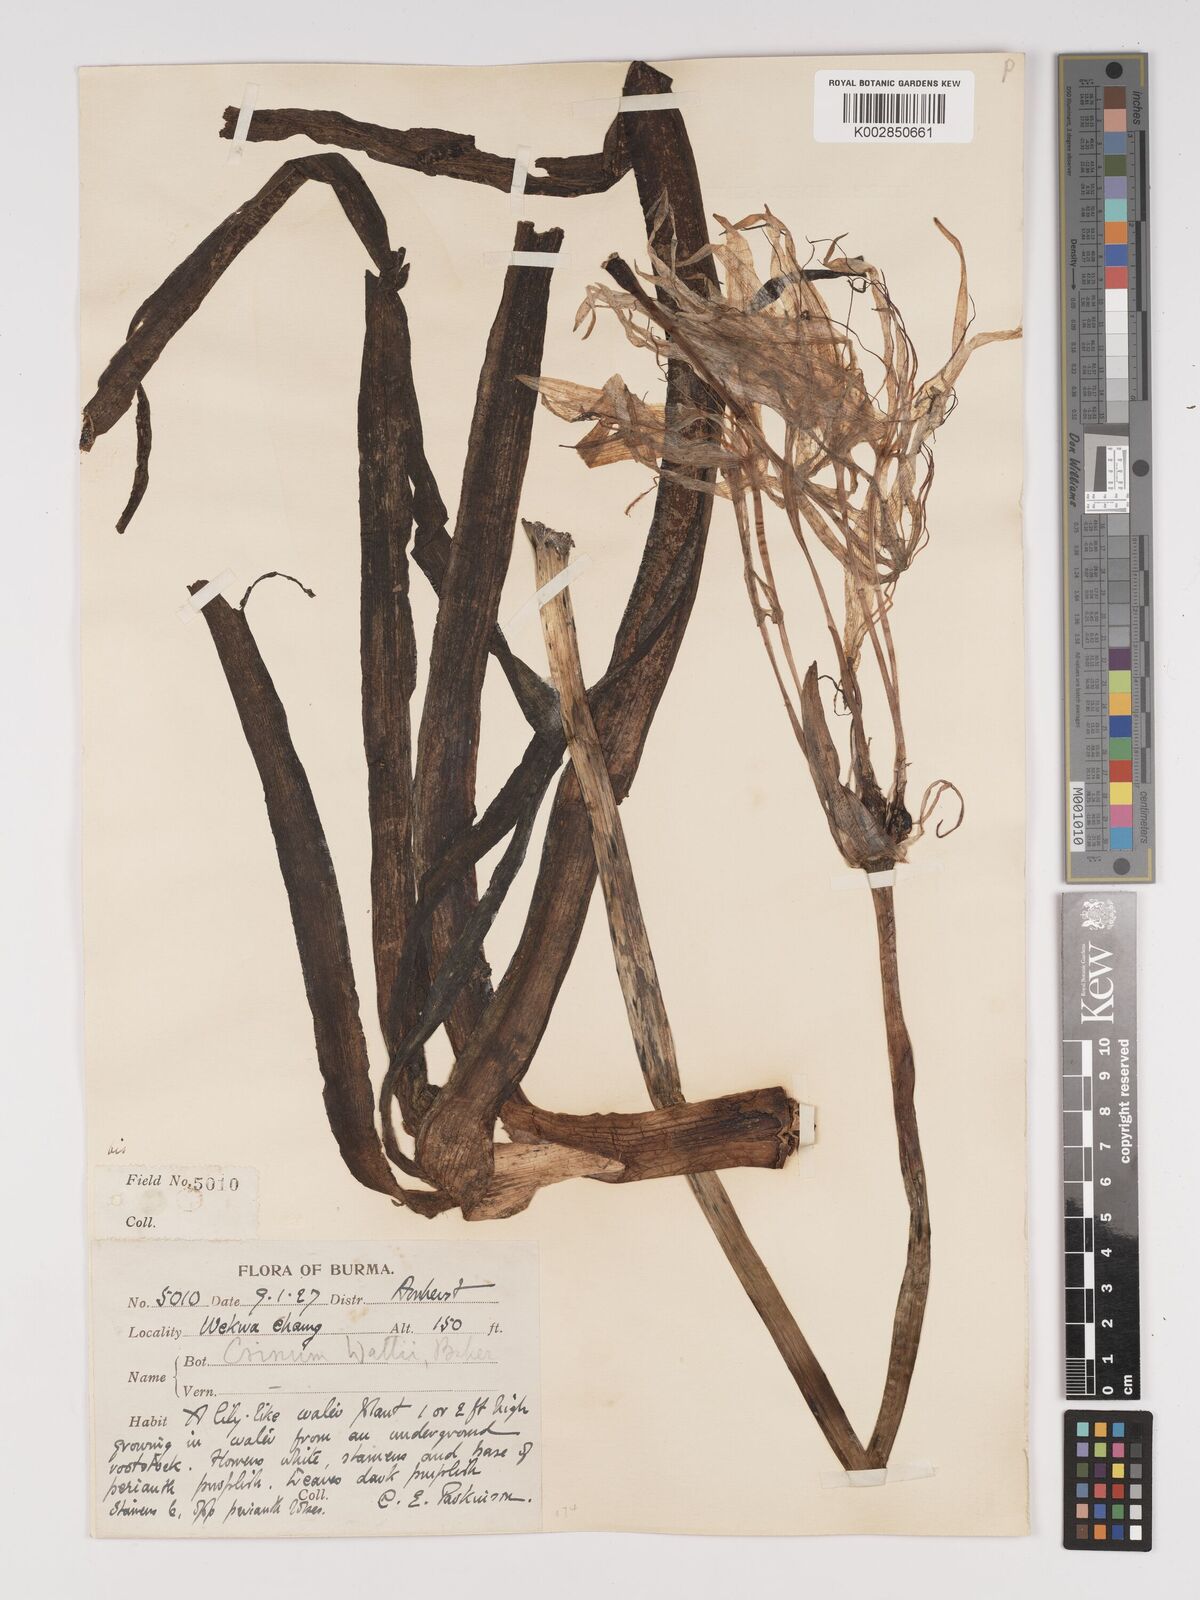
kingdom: Plantae
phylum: Tracheophyta
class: Liliopsida
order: Asparagales
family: Amaryllidaceae
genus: Crinum
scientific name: Crinum wattii
